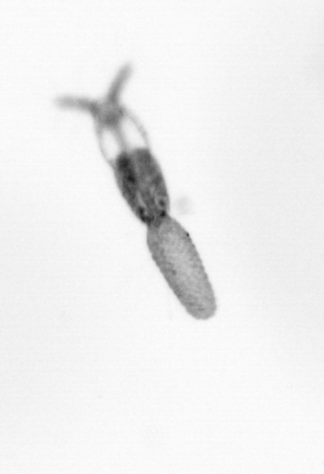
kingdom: Animalia
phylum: Arthropoda
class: Copepoda
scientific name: Copepoda
